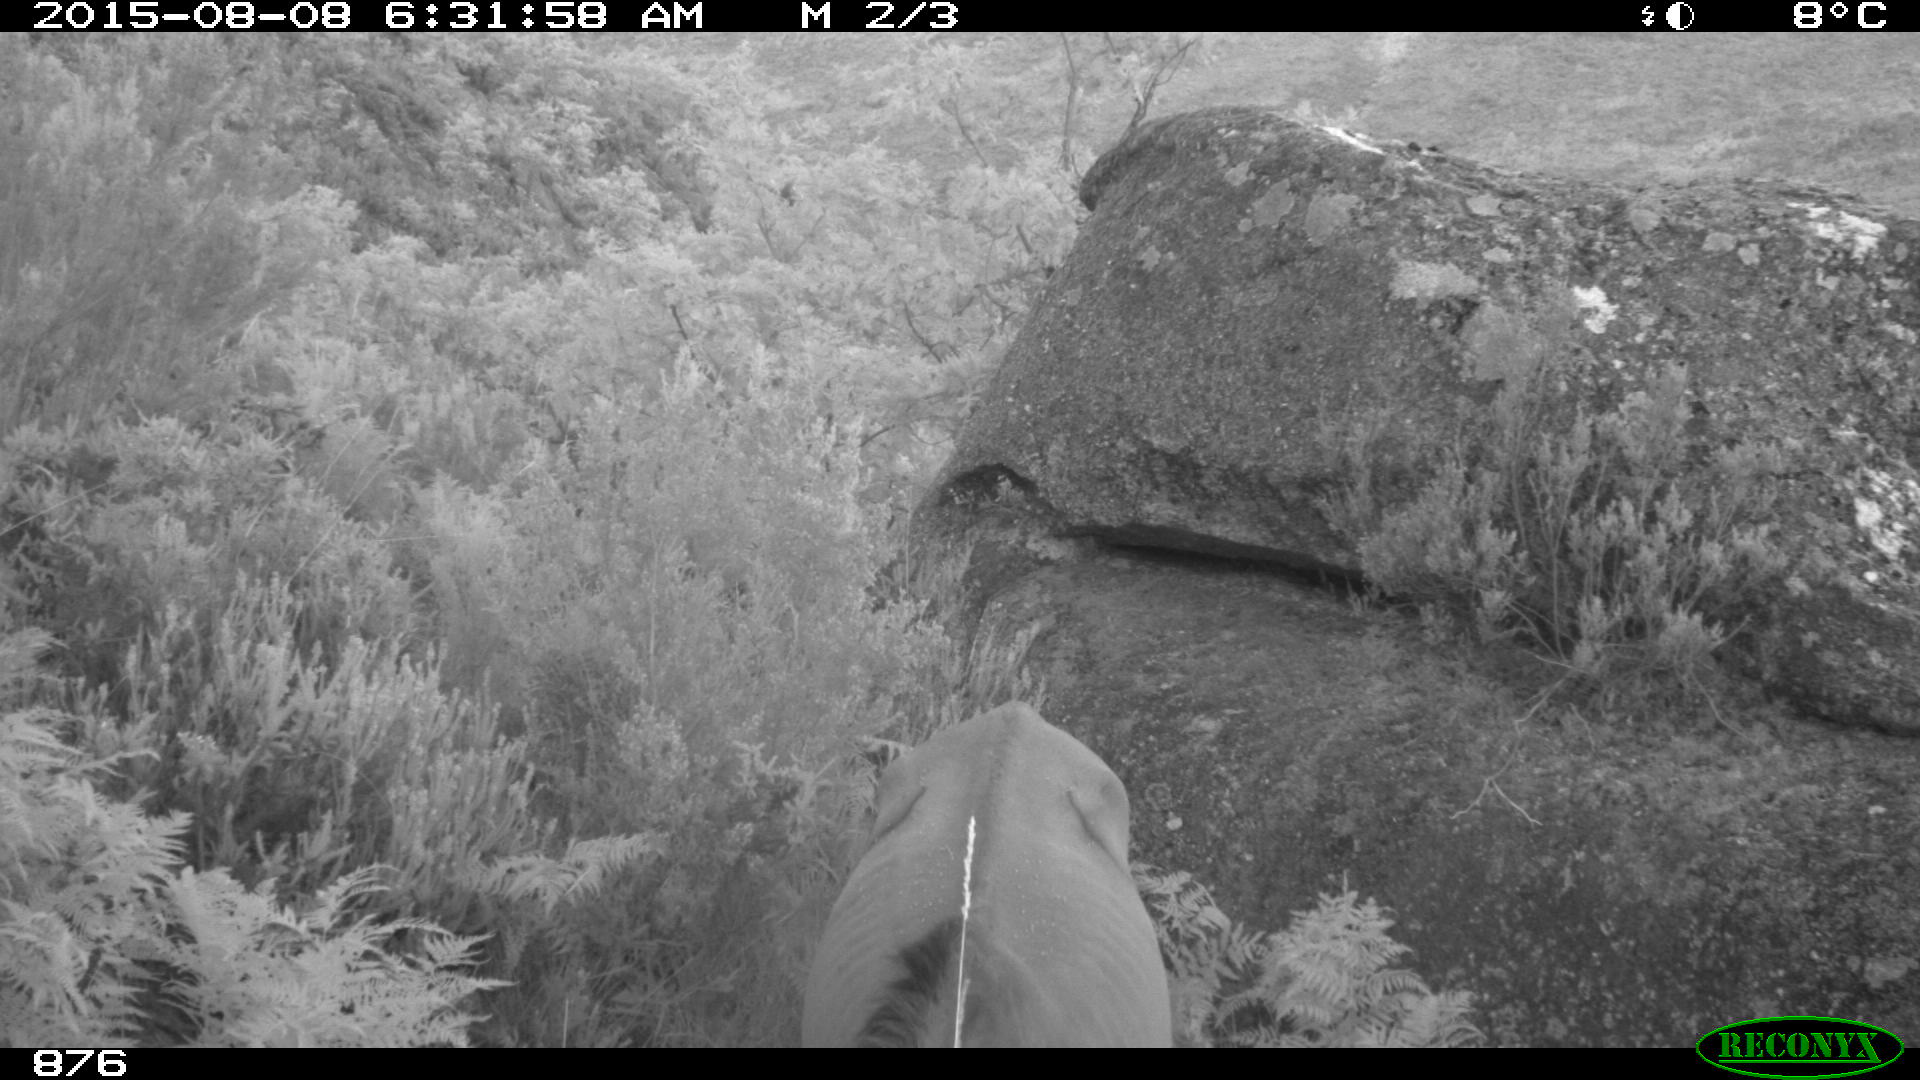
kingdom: Animalia
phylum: Chordata
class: Mammalia
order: Perissodactyla
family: Equidae
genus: Equus
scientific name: Equus caballus
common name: Horse
